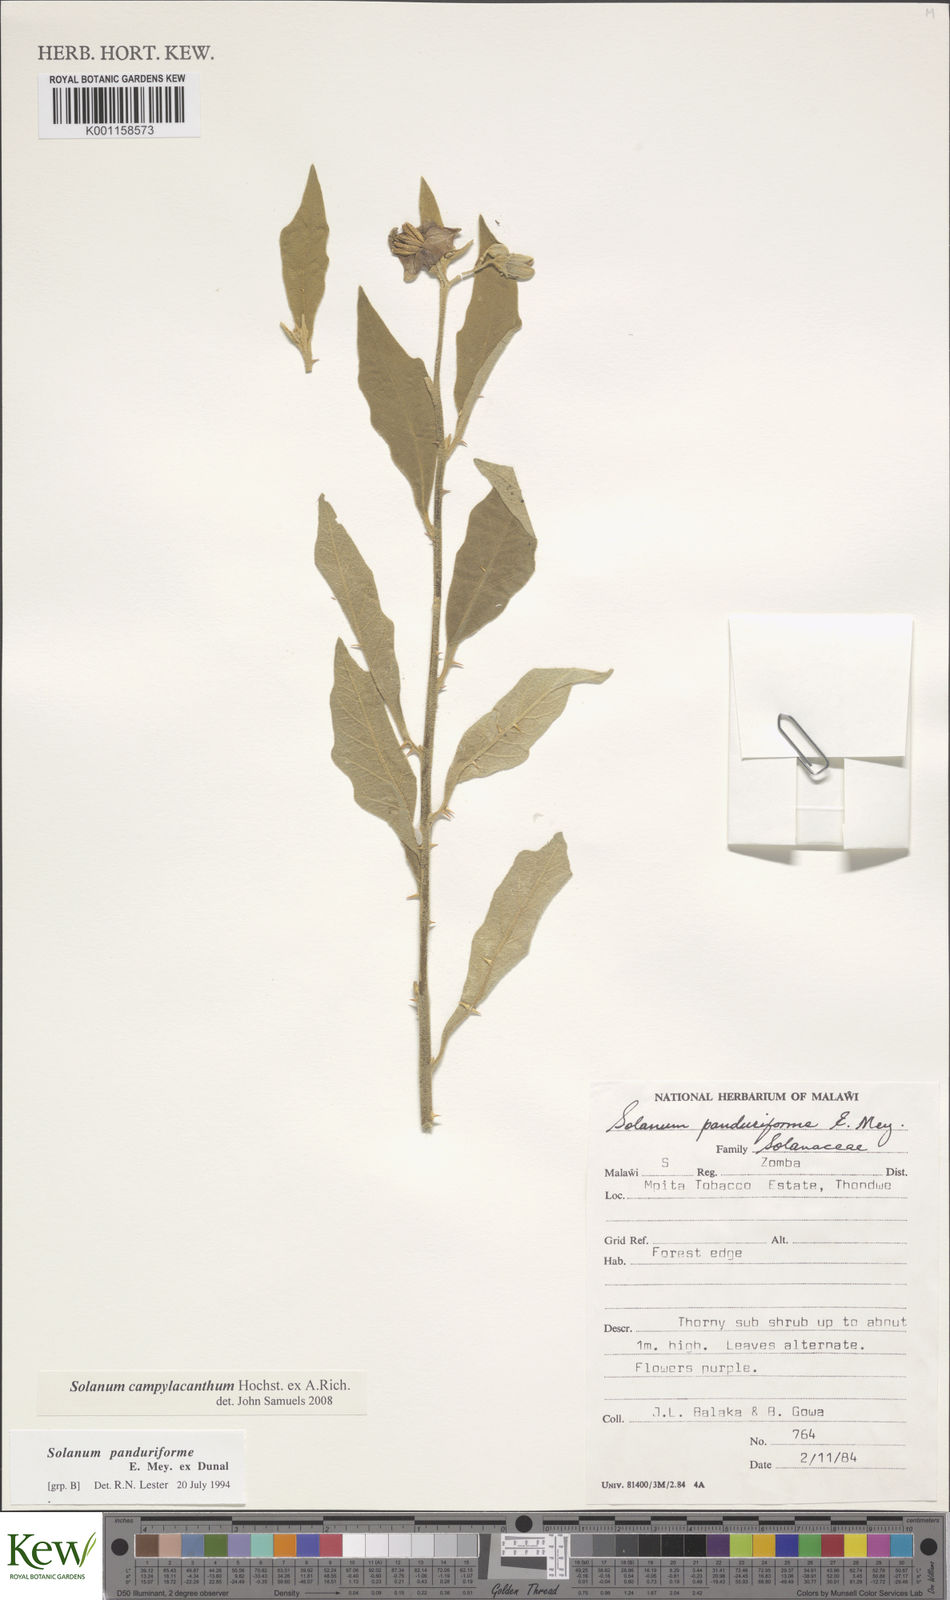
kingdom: Plantae
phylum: Tracheophyta
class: Magnoliopsida
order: Solanales
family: Solanaceae
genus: Solanum
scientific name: Solanum campylacanthum
